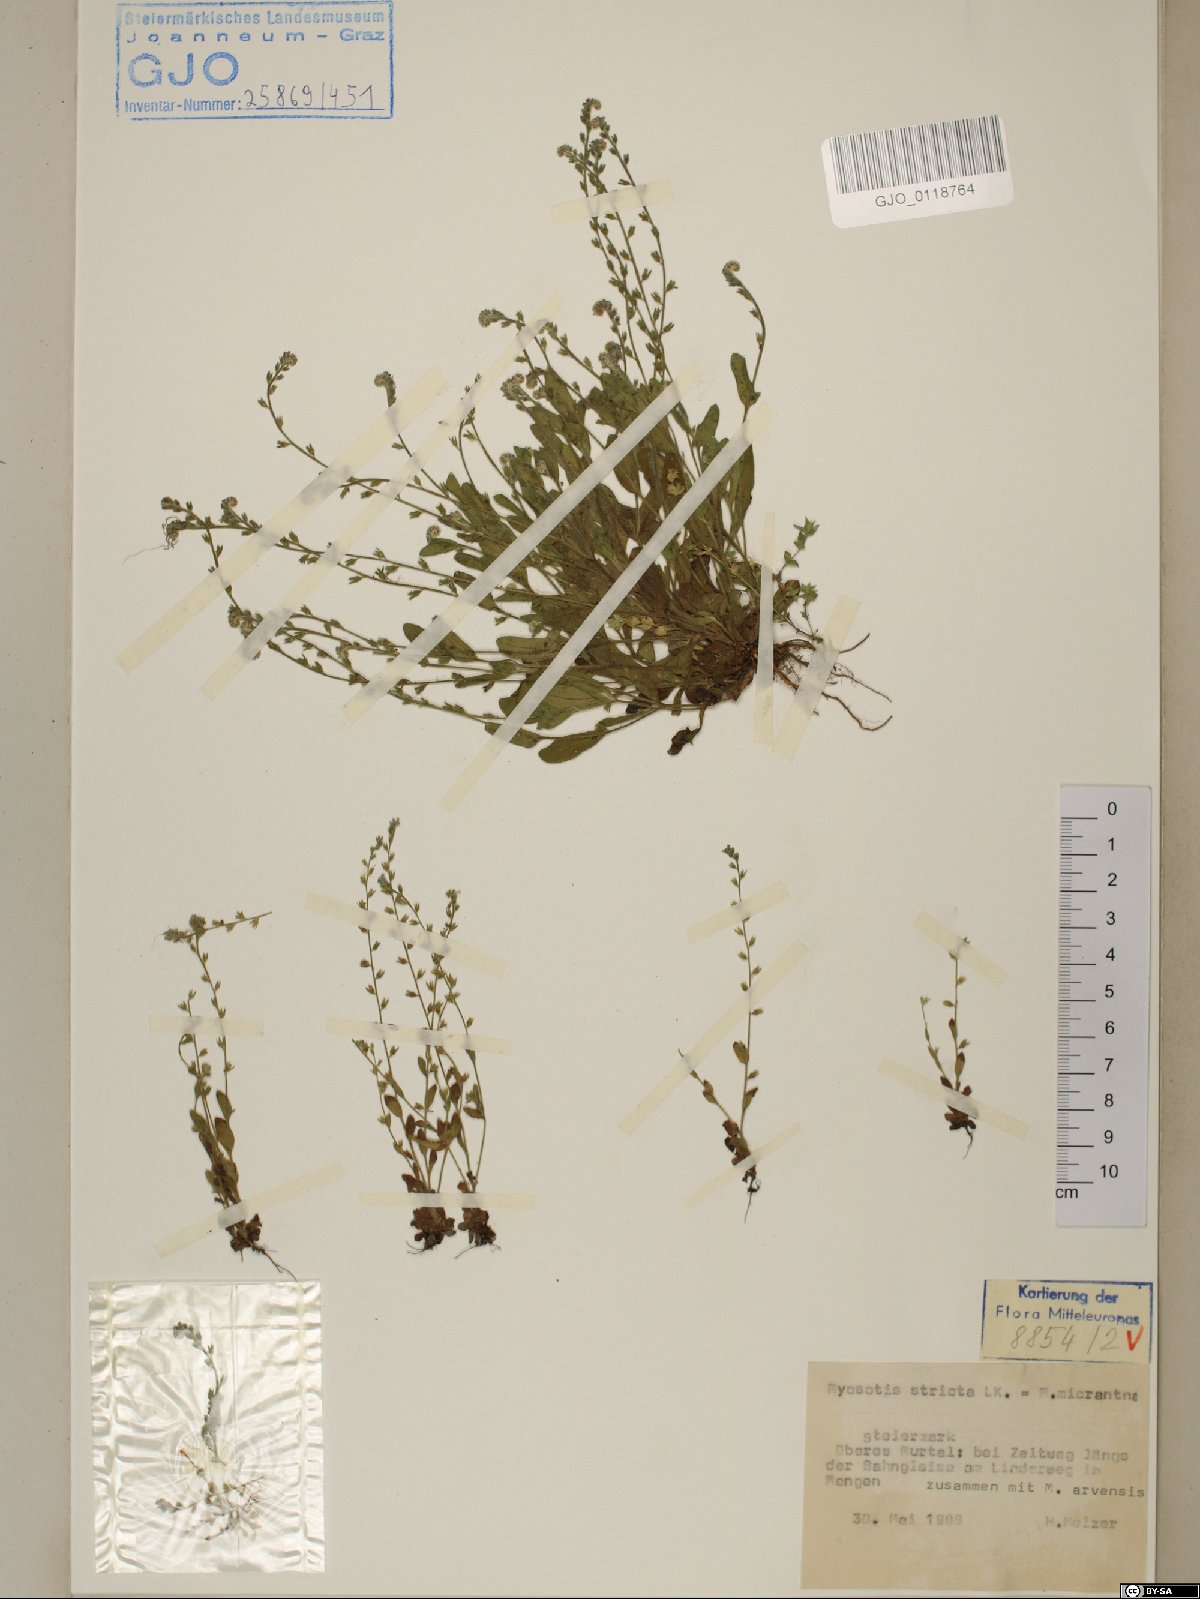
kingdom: Plantae
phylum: Tracheophyta
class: Magnoliopsida
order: Boraginales
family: Boraginaceae
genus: Myosotis
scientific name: Myosotis stricta
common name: Strict forget-me-not
